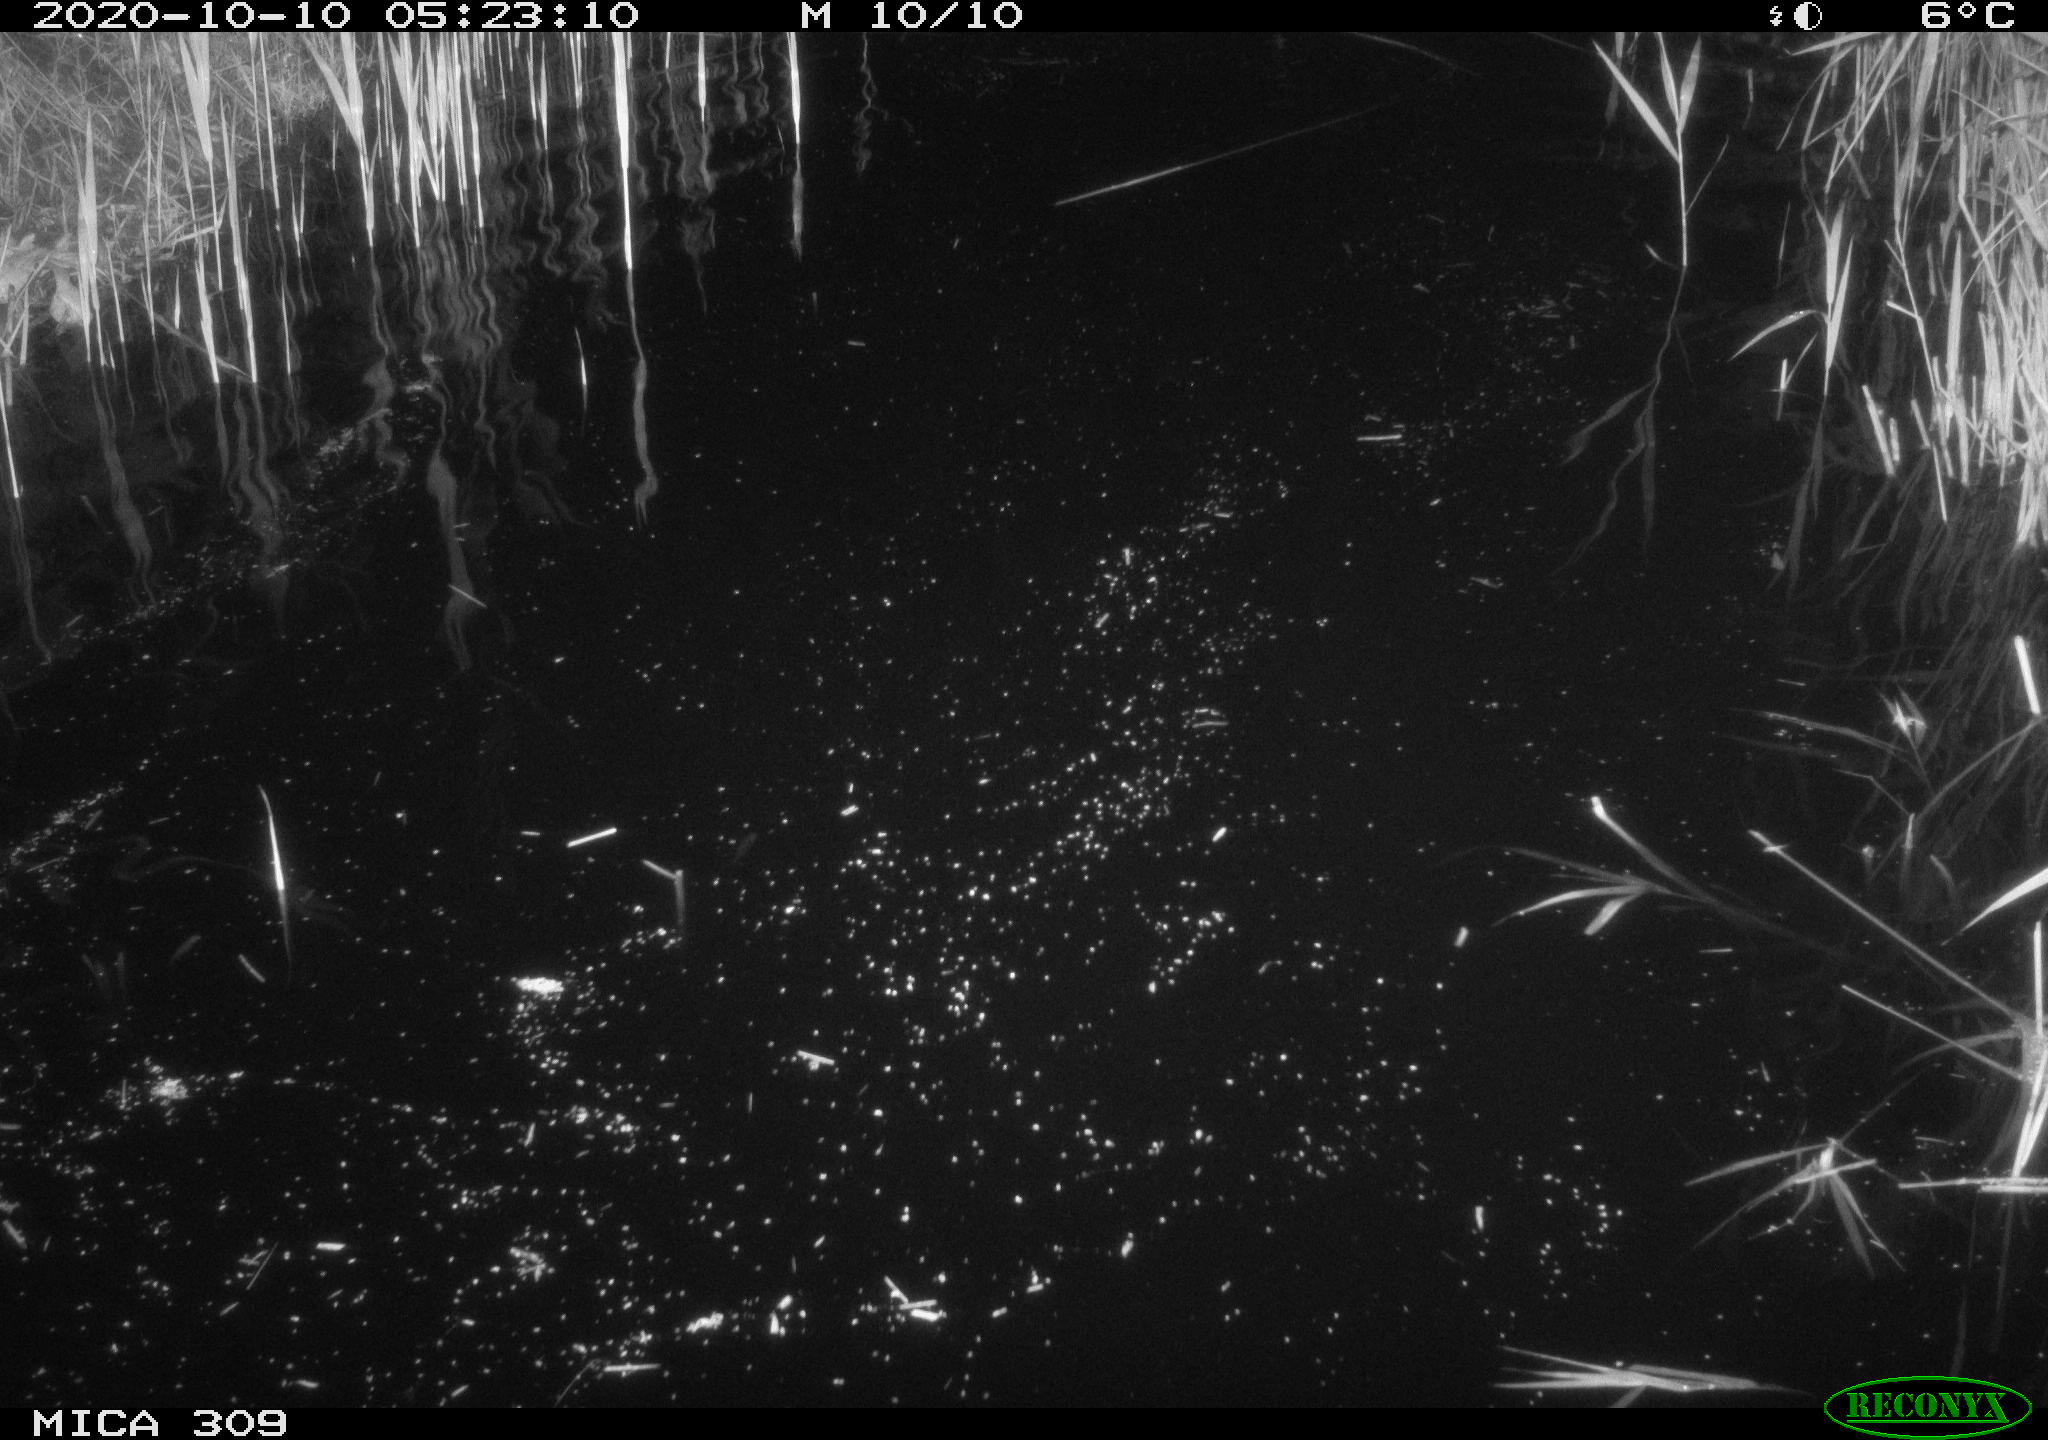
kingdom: Animalia
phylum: Chordata
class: Mammalia
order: Rodentia
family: Muridae
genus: Rattus
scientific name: Rattus norvegicus
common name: Brown rat
